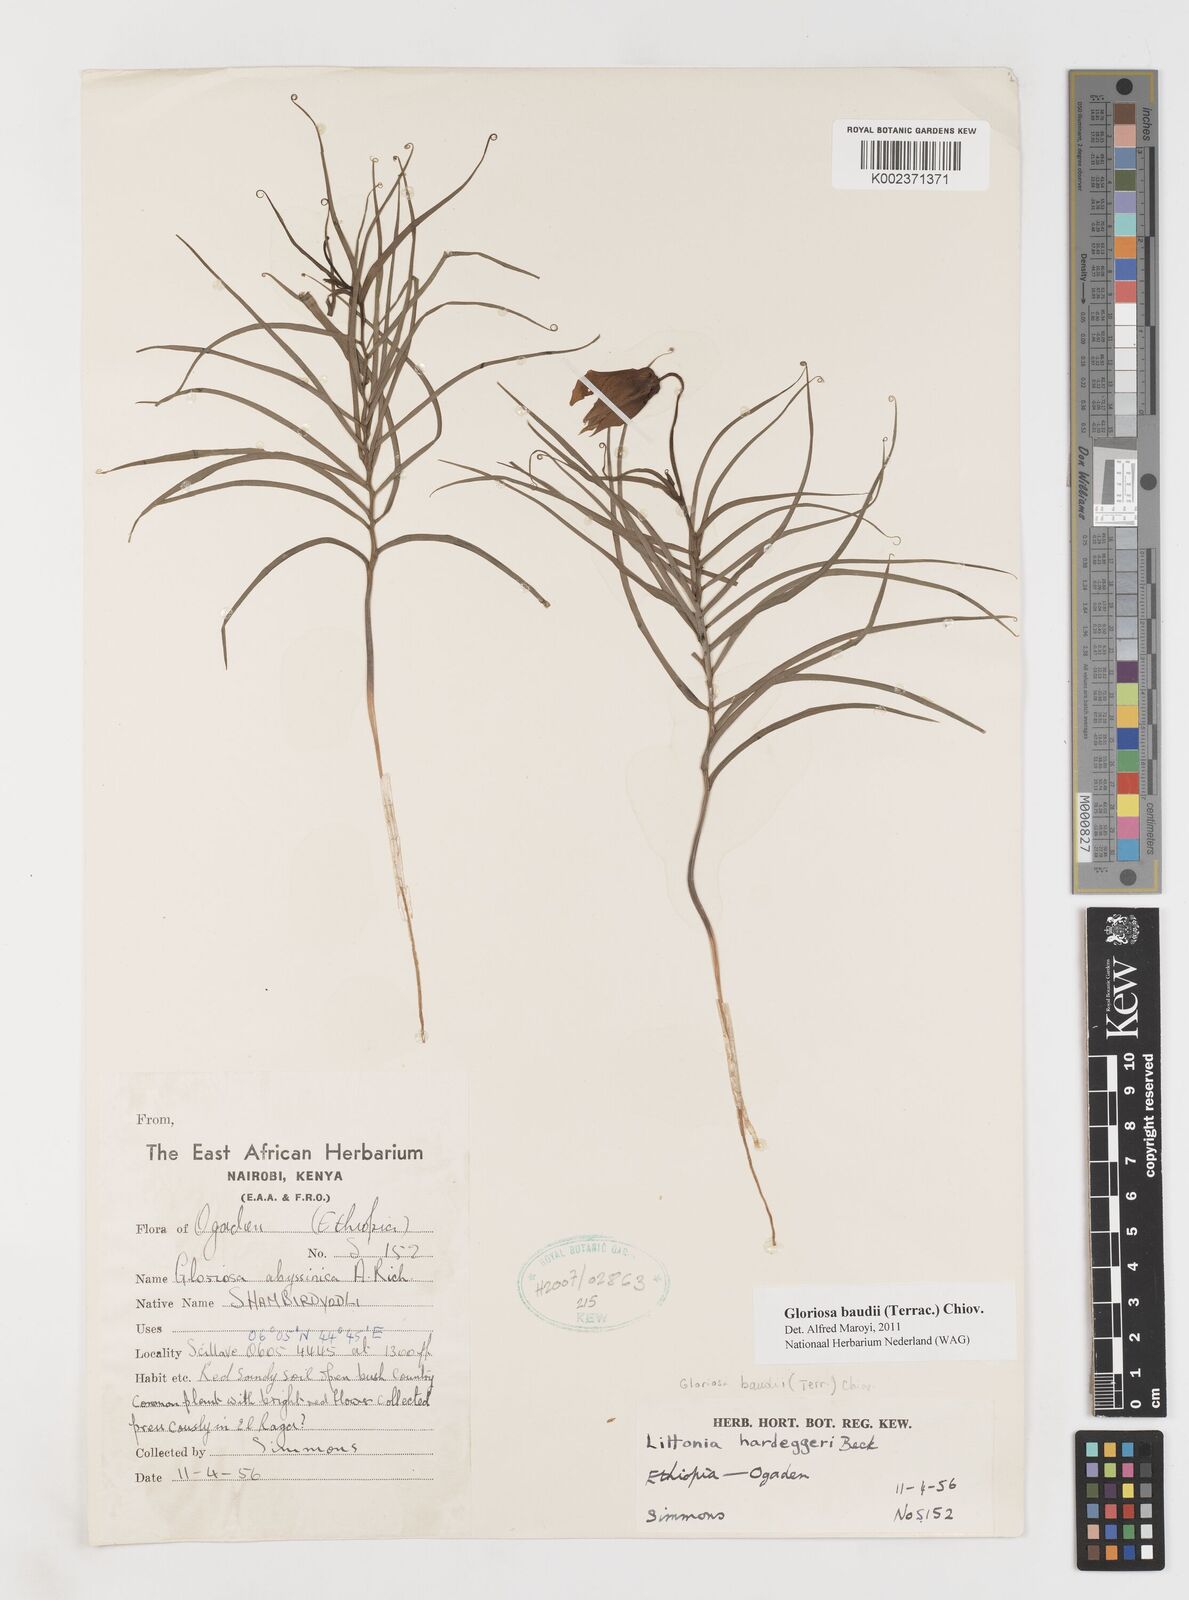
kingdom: Plantae
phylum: Tracheophyta
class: Liliopsida
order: Liliales
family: Colchicaceae
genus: Gloriosa
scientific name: Gloriosa baudii
